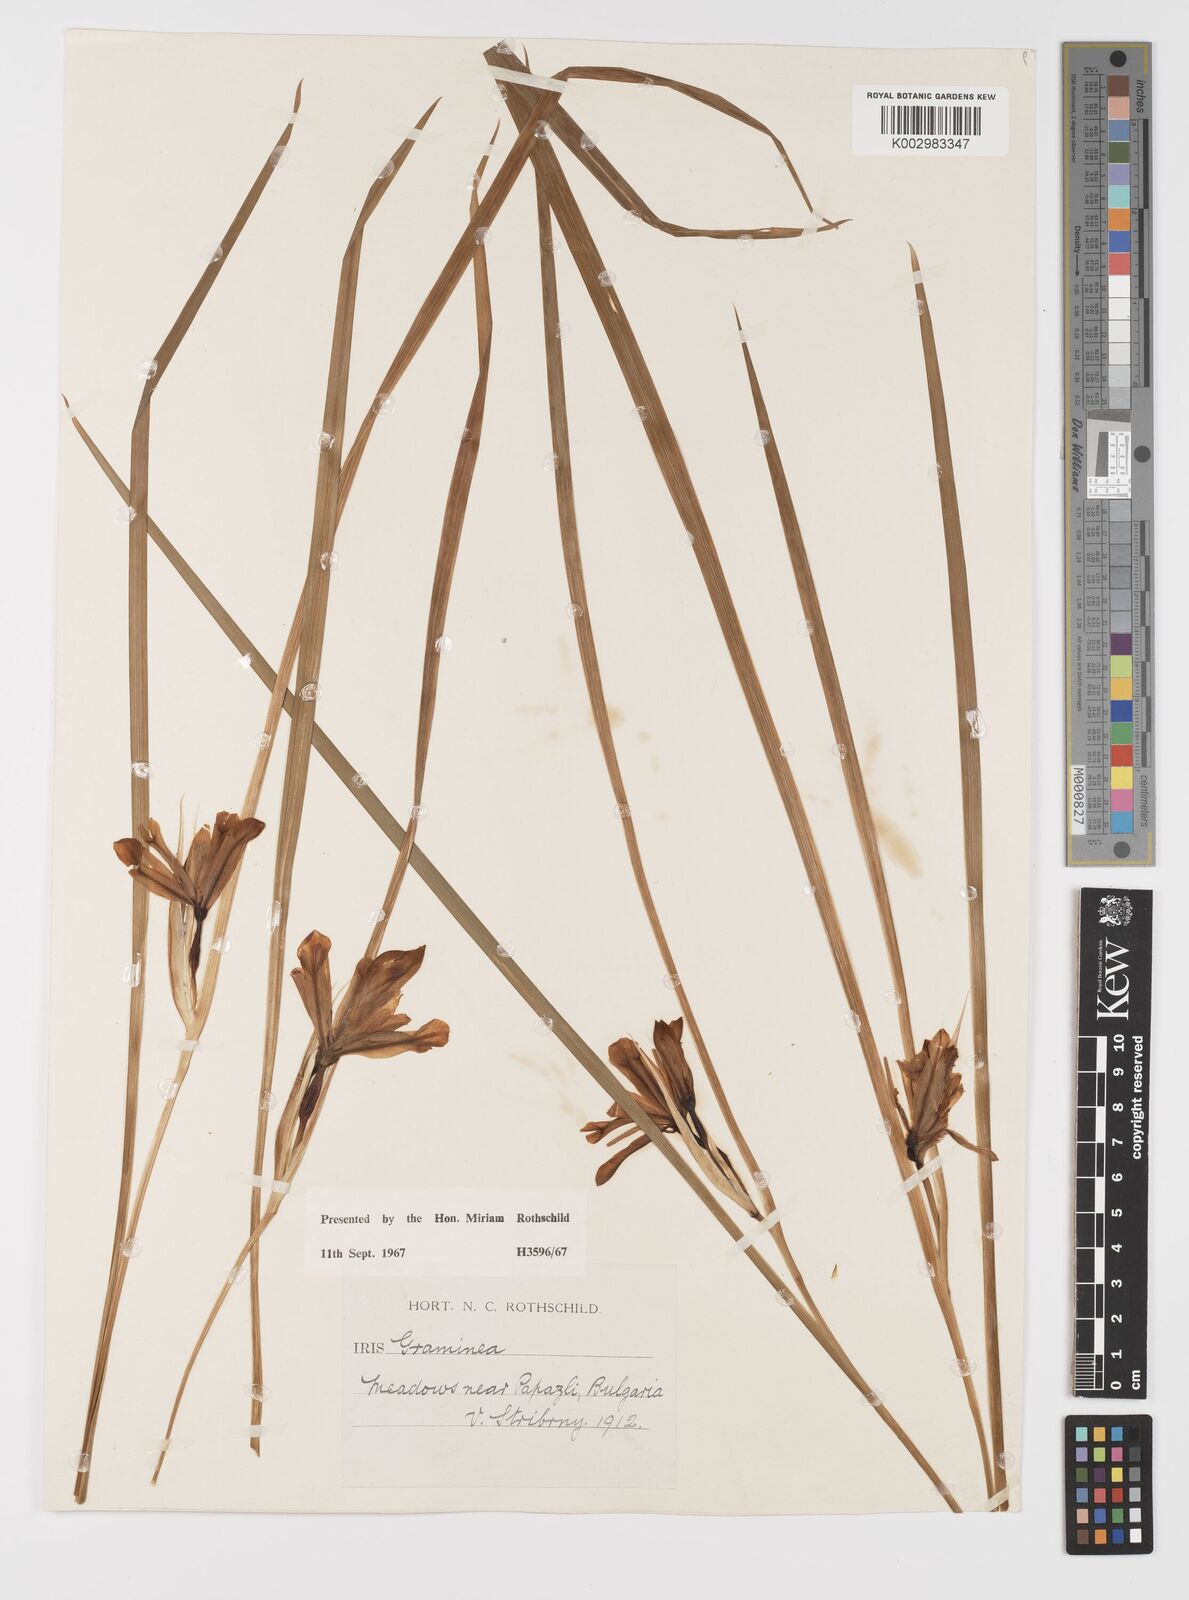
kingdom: Plantae
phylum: Tracheophyta
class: Liliopsida
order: Asparagales
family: Iridaceae
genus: Iris
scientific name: Iris graminea
